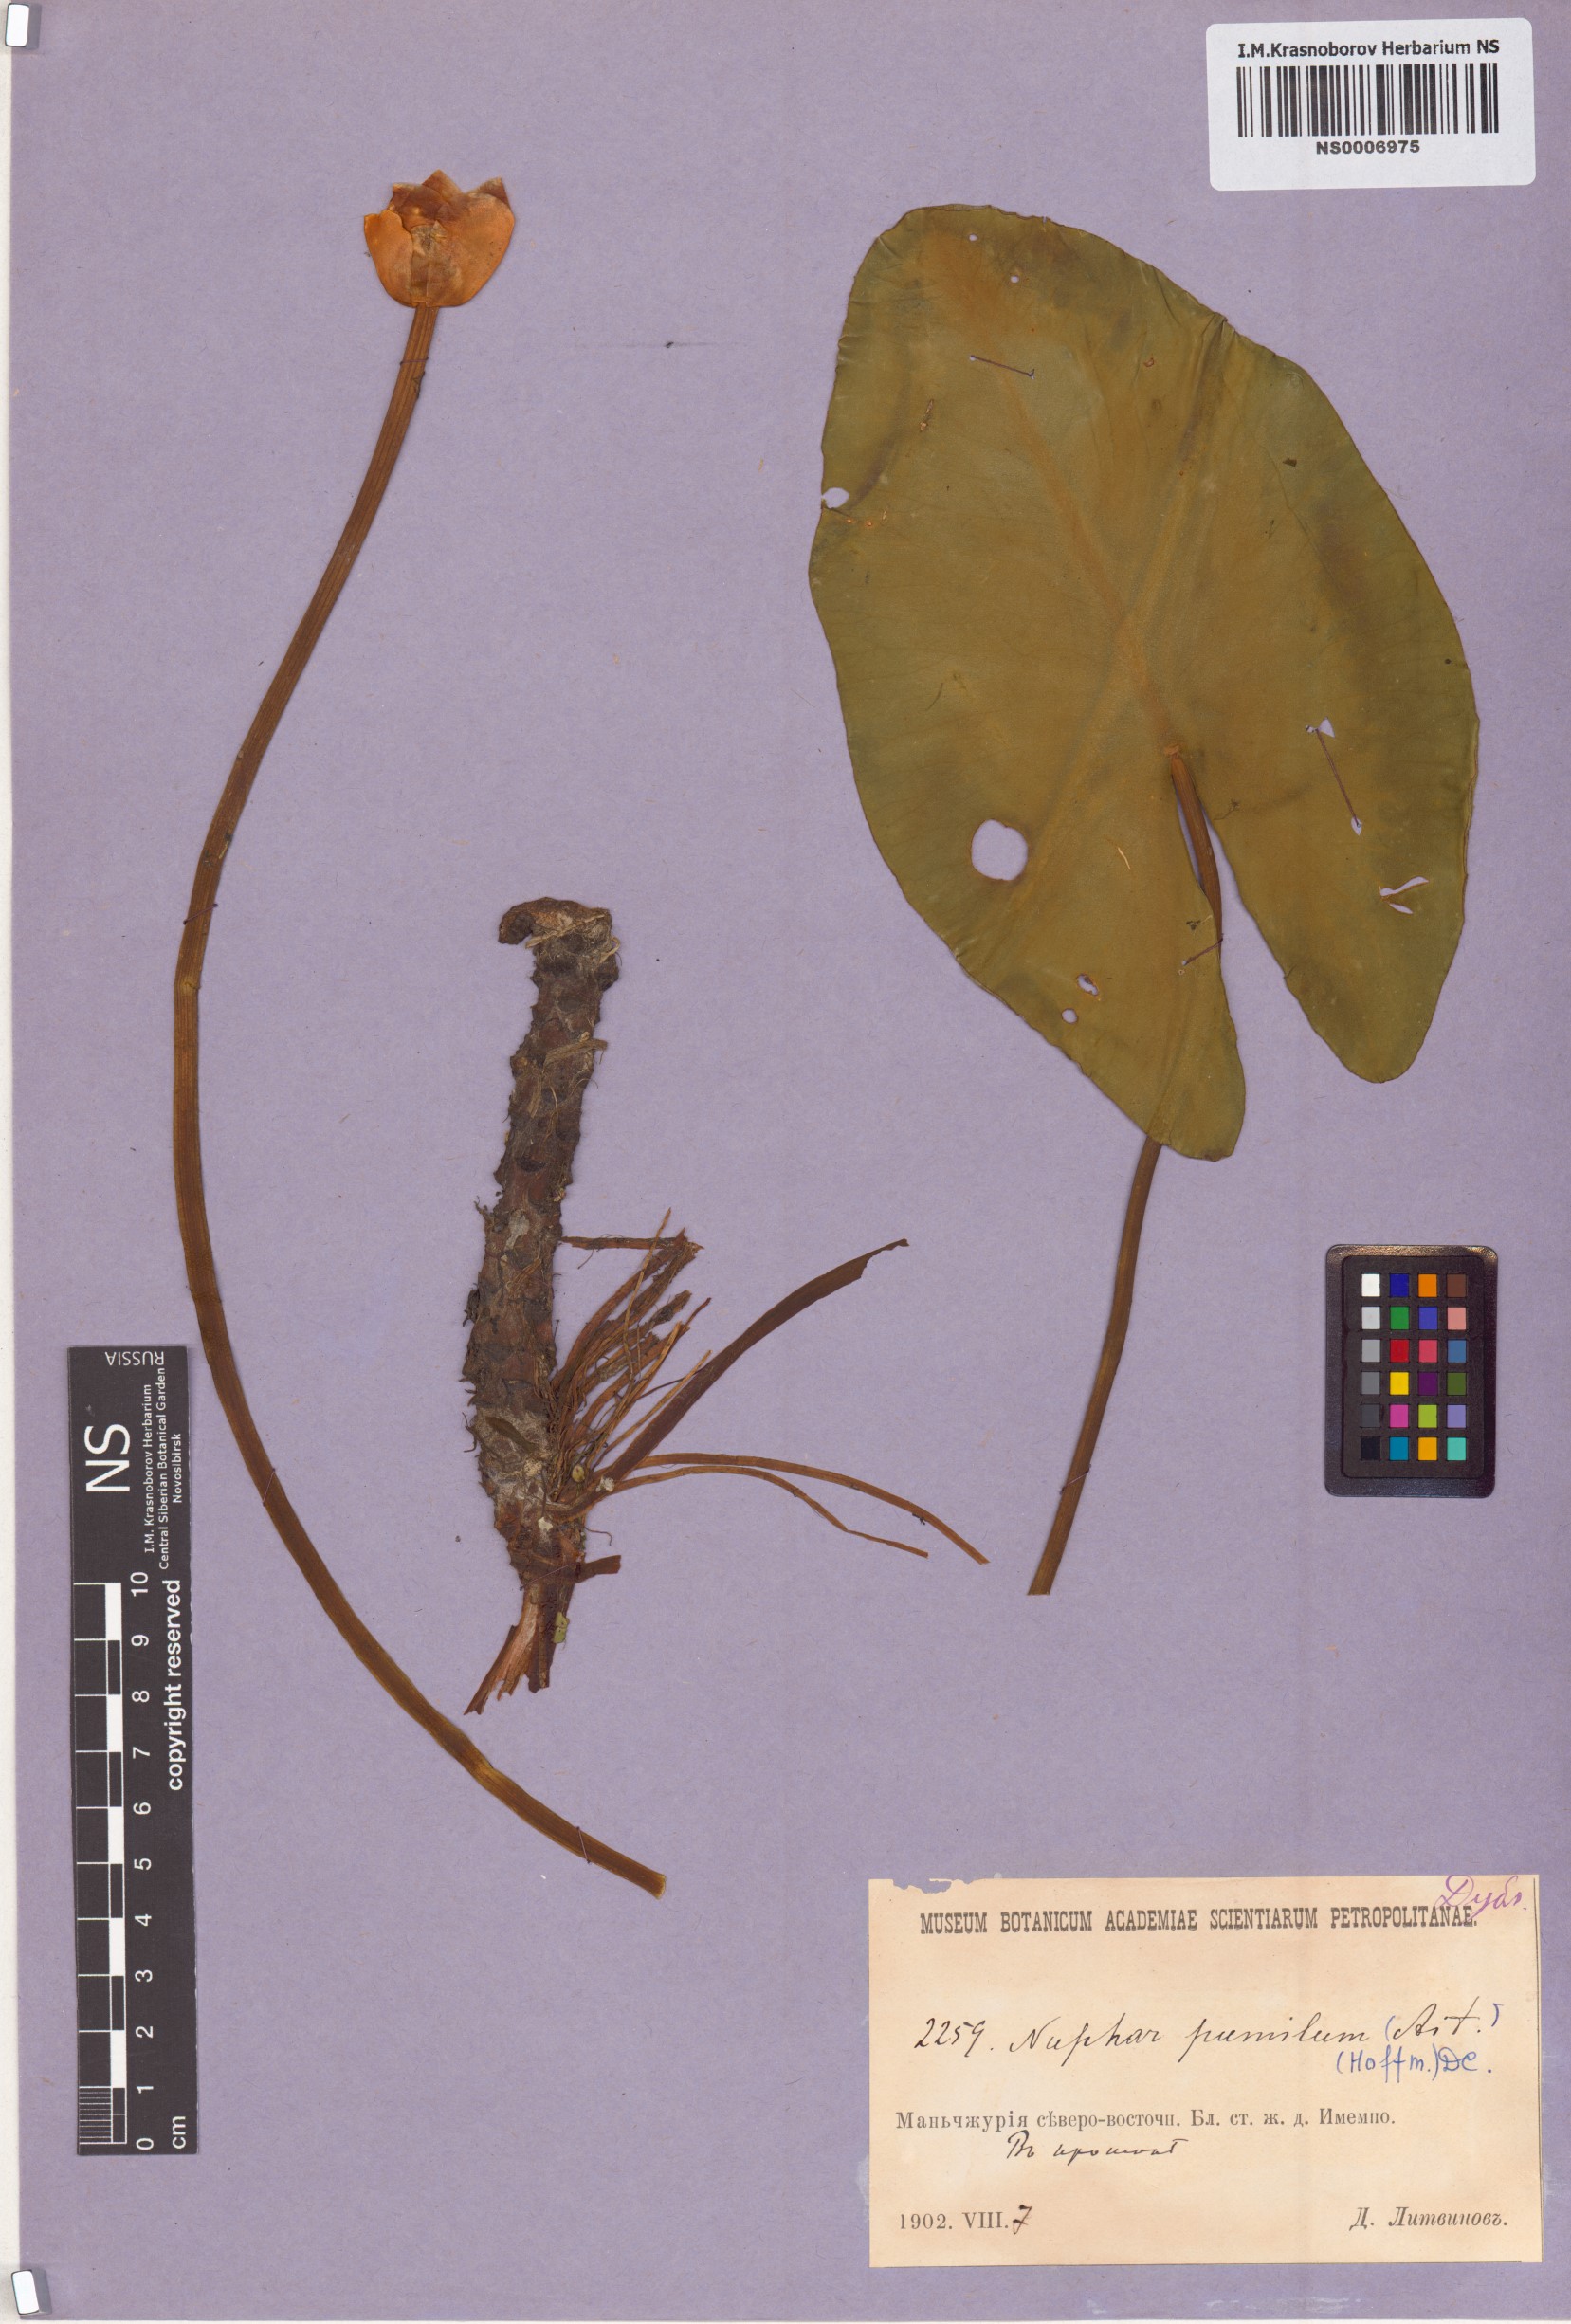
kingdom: Plantae
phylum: Tracheophyta
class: Magnoliopsida
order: Nymphaeales
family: Nymphaeaceae
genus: Nuphar
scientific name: Nuphar pumila
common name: Least water-lily
